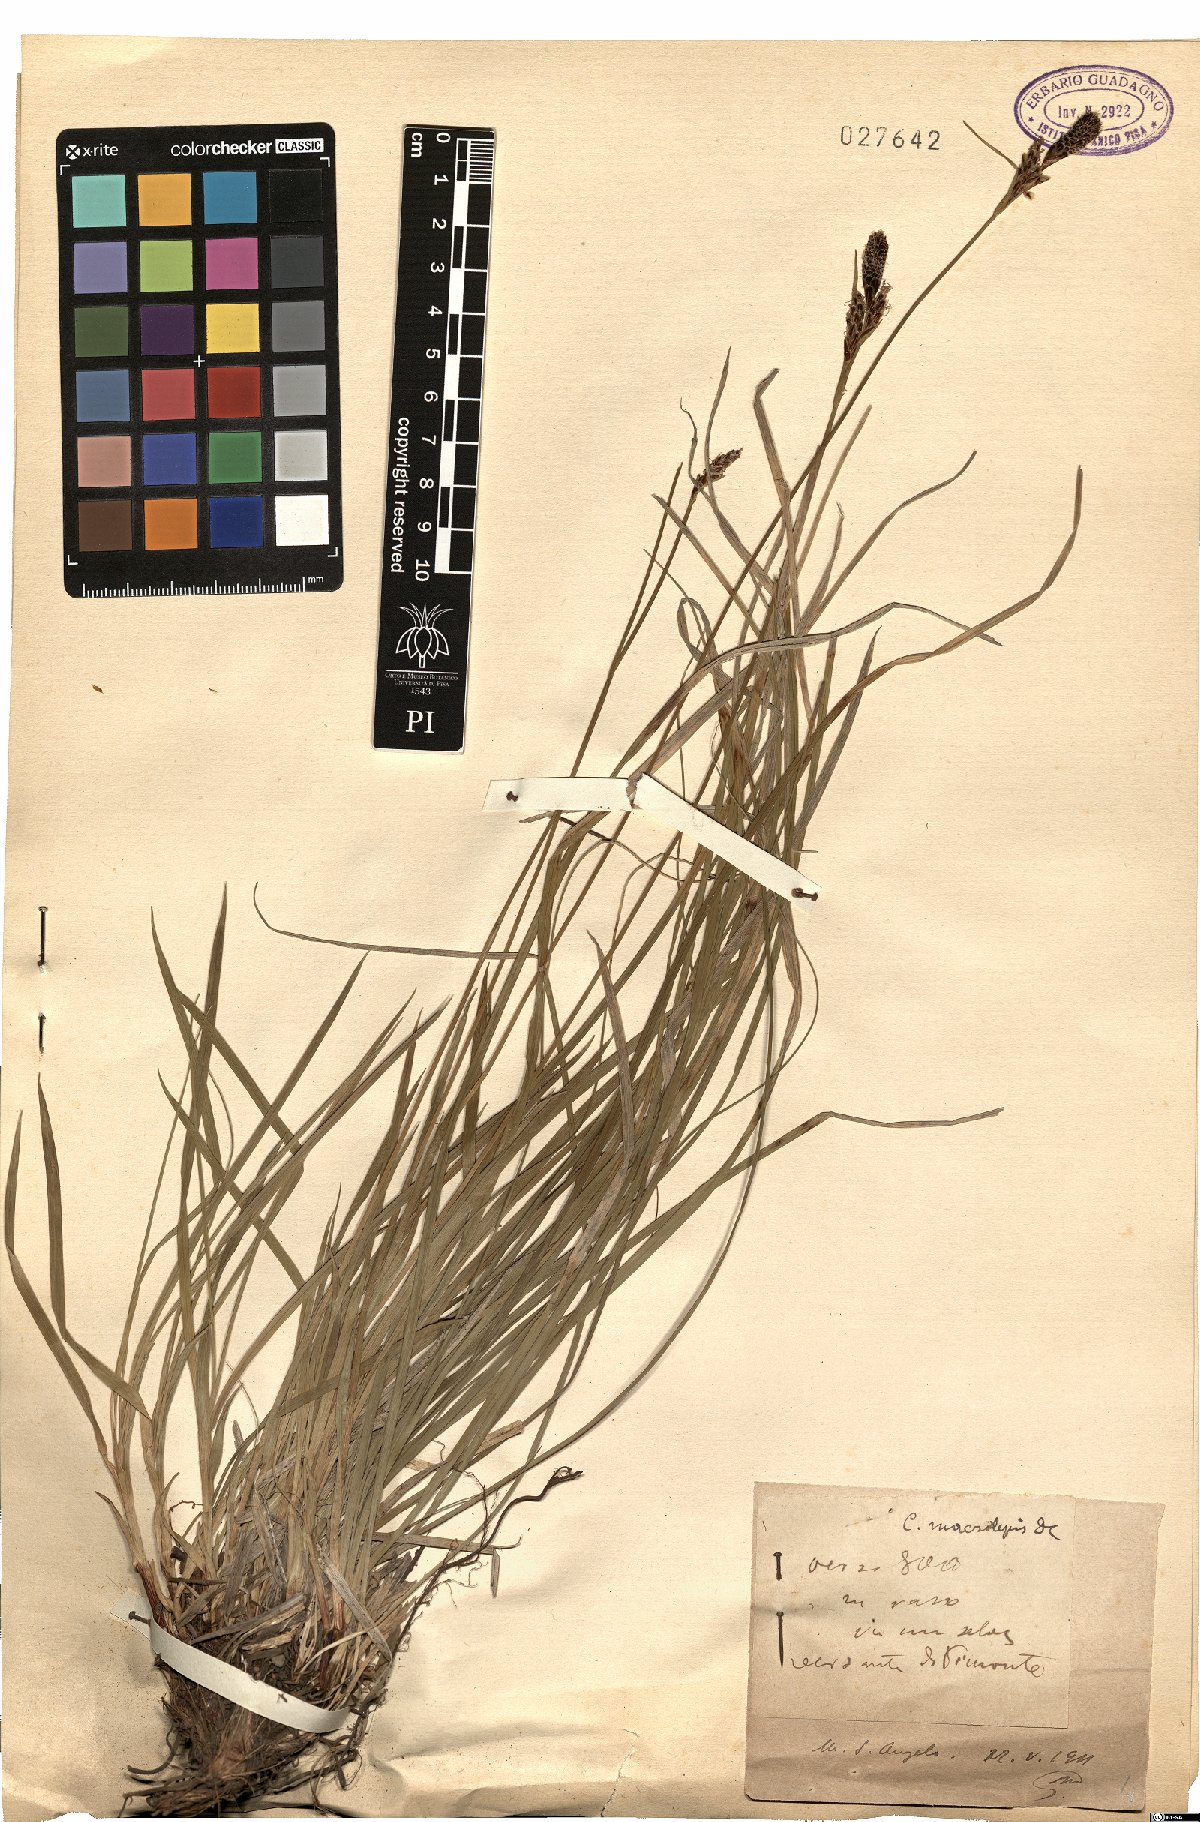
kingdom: Plantae
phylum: Tracheophyta
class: Liliopsida
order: Poales
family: Cyperaceae
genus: Carex
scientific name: Carex macrolepis
